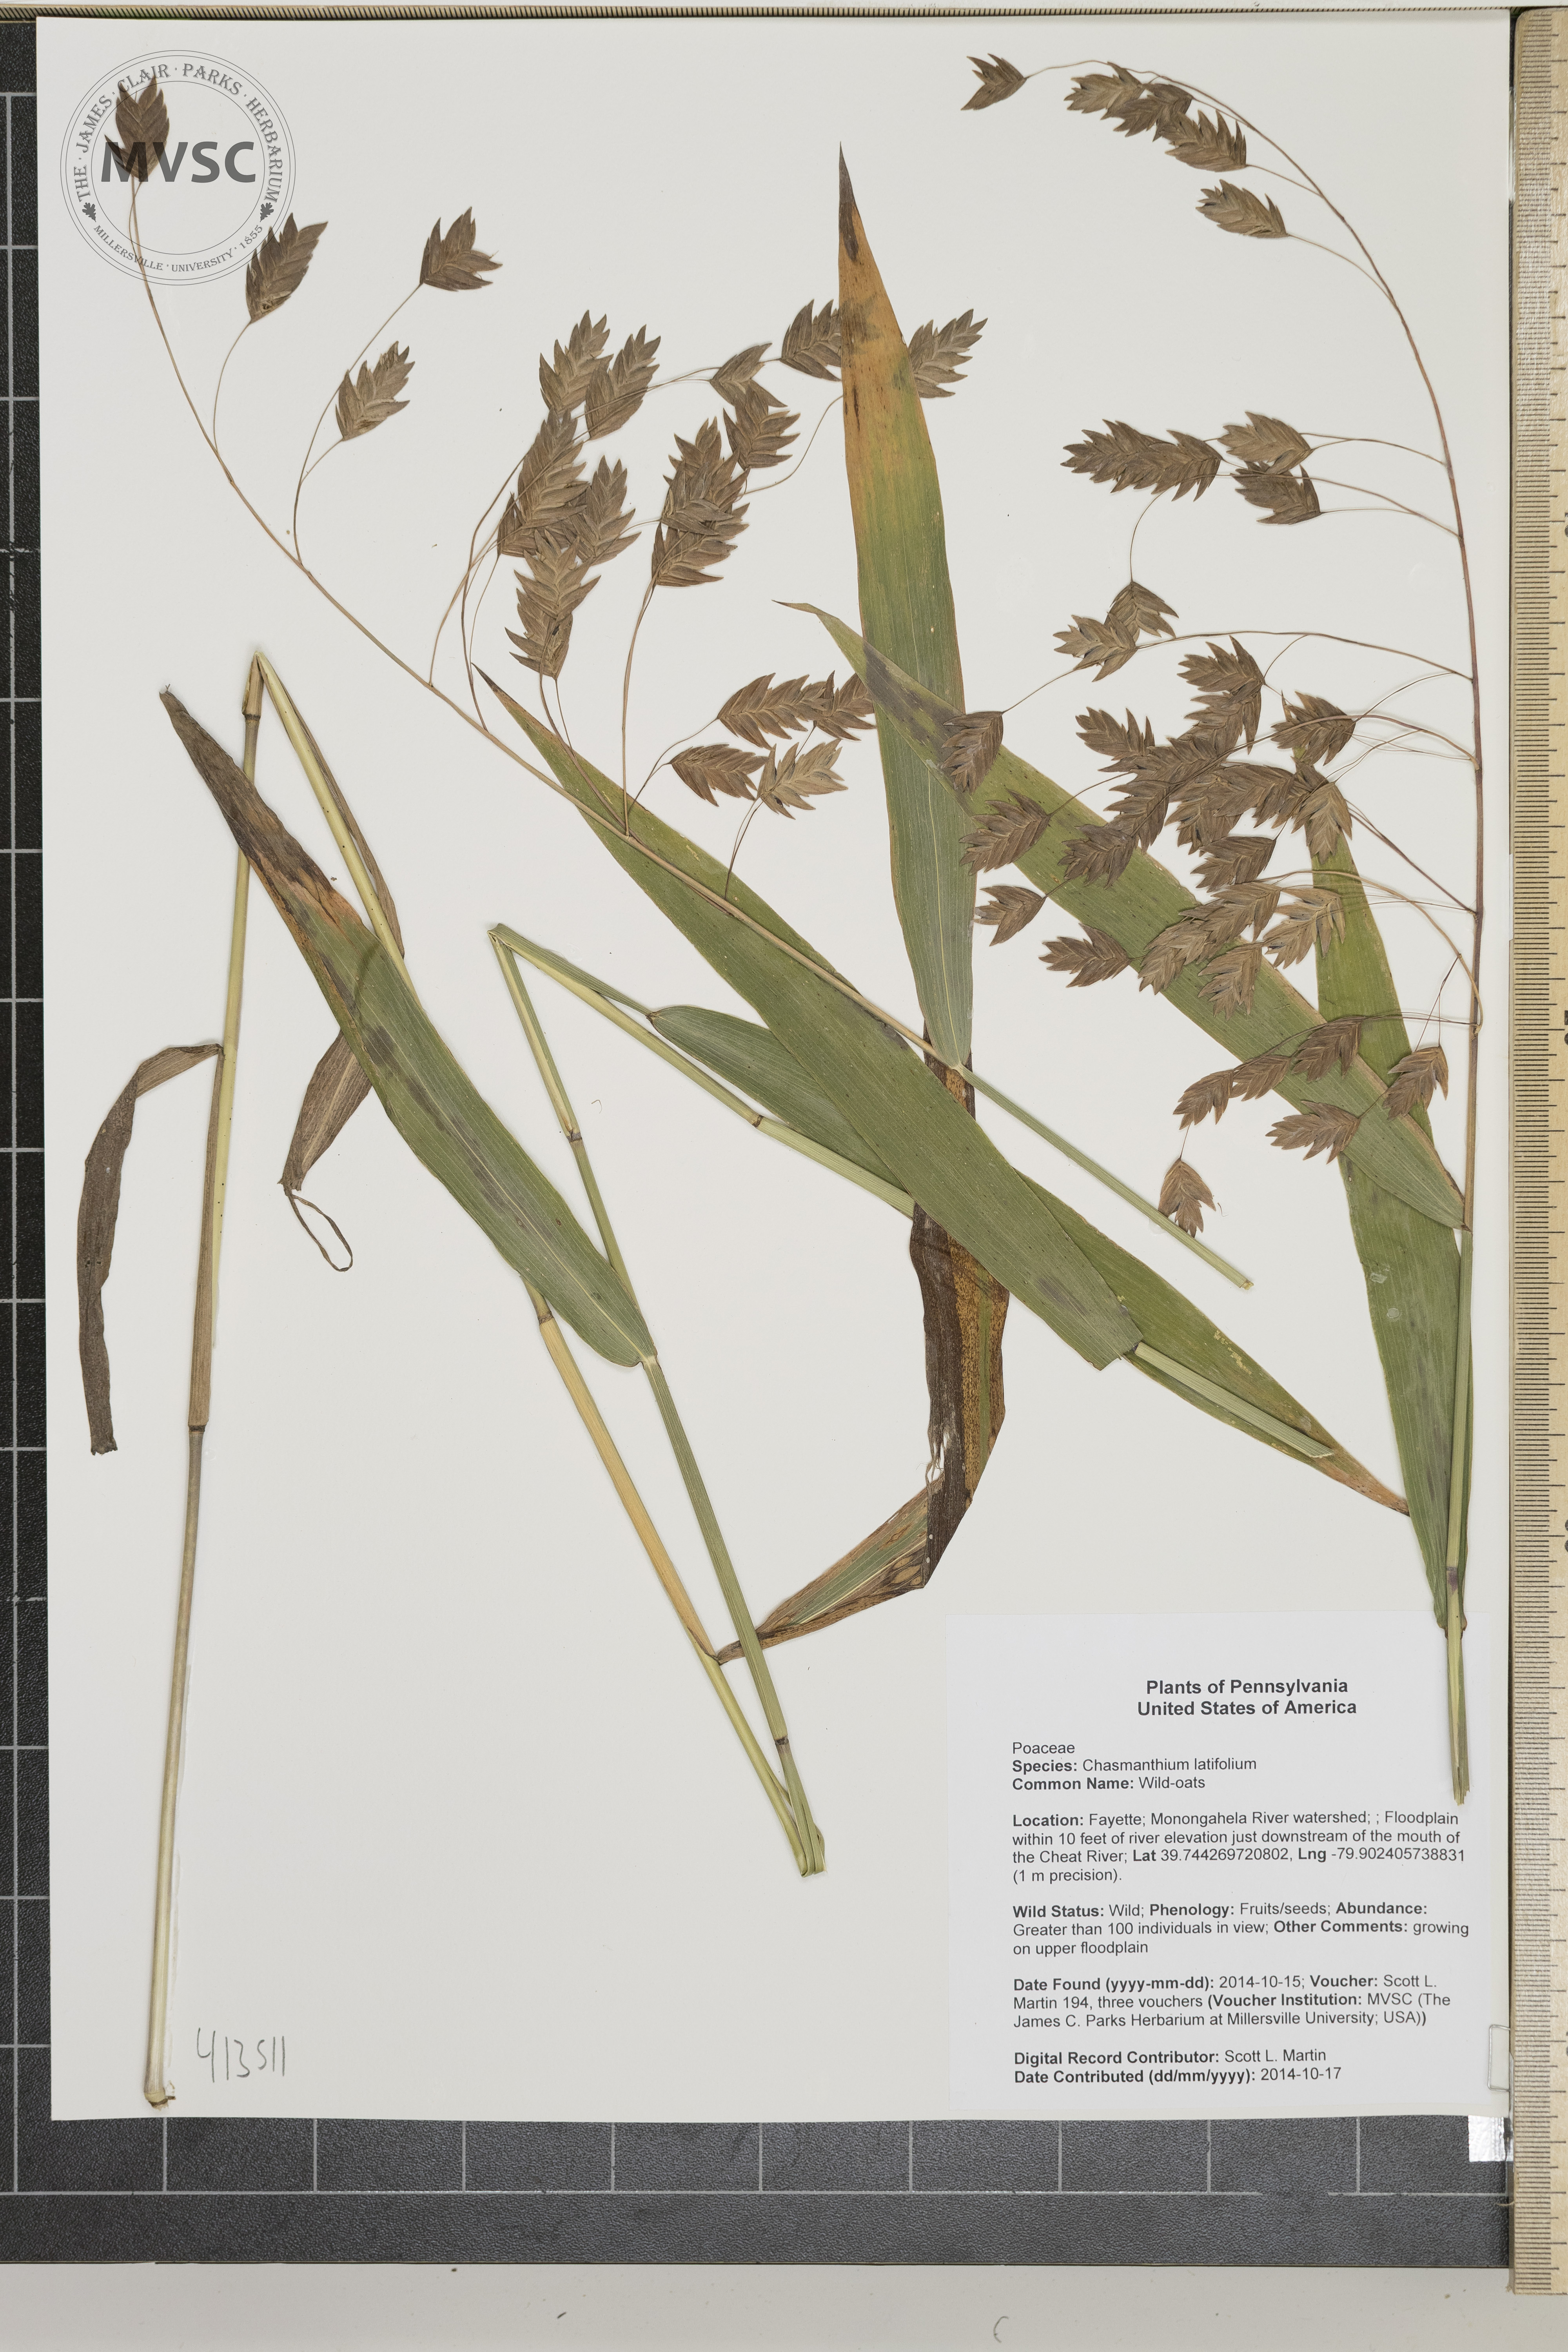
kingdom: Plantae
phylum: Tracheophyta
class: Liliopsida
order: Poales
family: Poaceae
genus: Chasmanthium
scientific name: Chasmanthium latifolium
